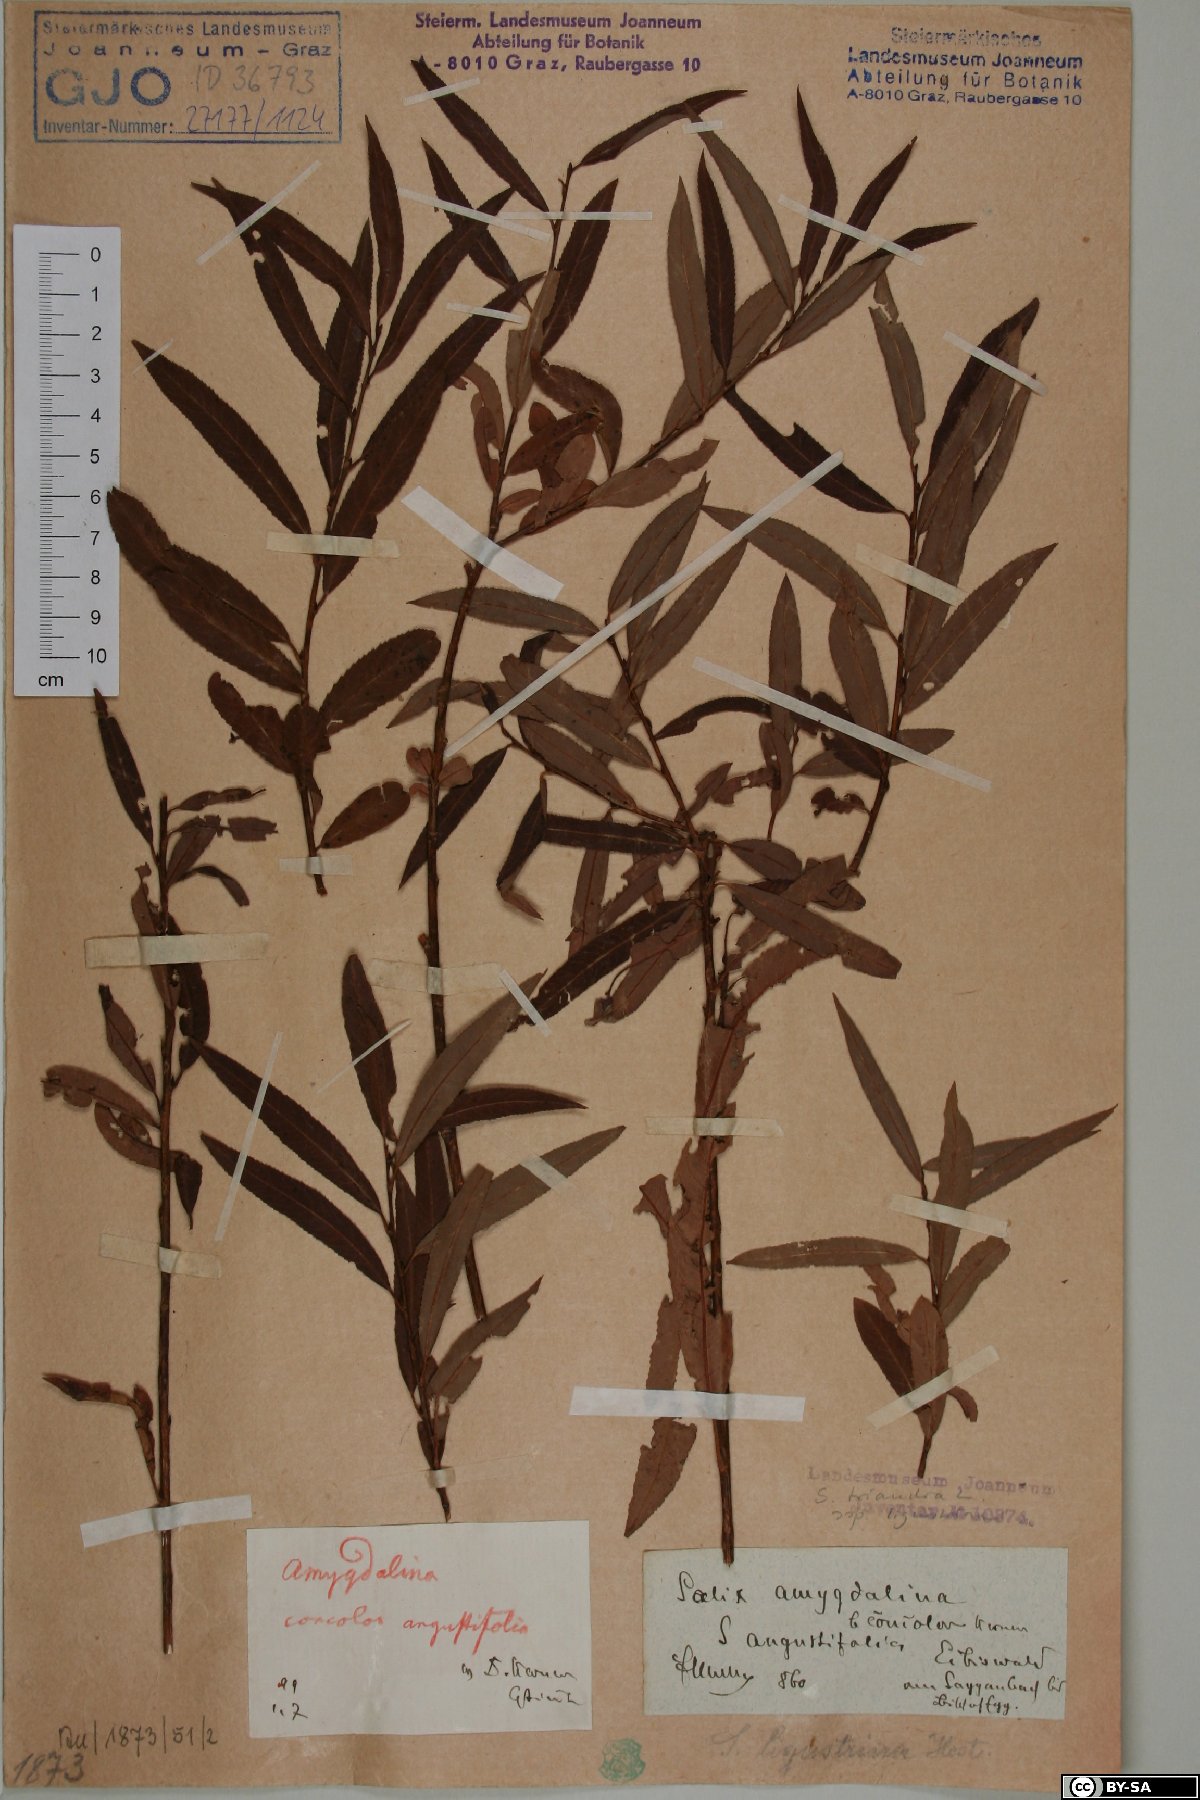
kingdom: Plantae
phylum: Tracheophyta
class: Magnoliopsida
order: Malpighiales
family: Salicaceae
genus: Salix
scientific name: Salix triandra
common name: Almond willow
